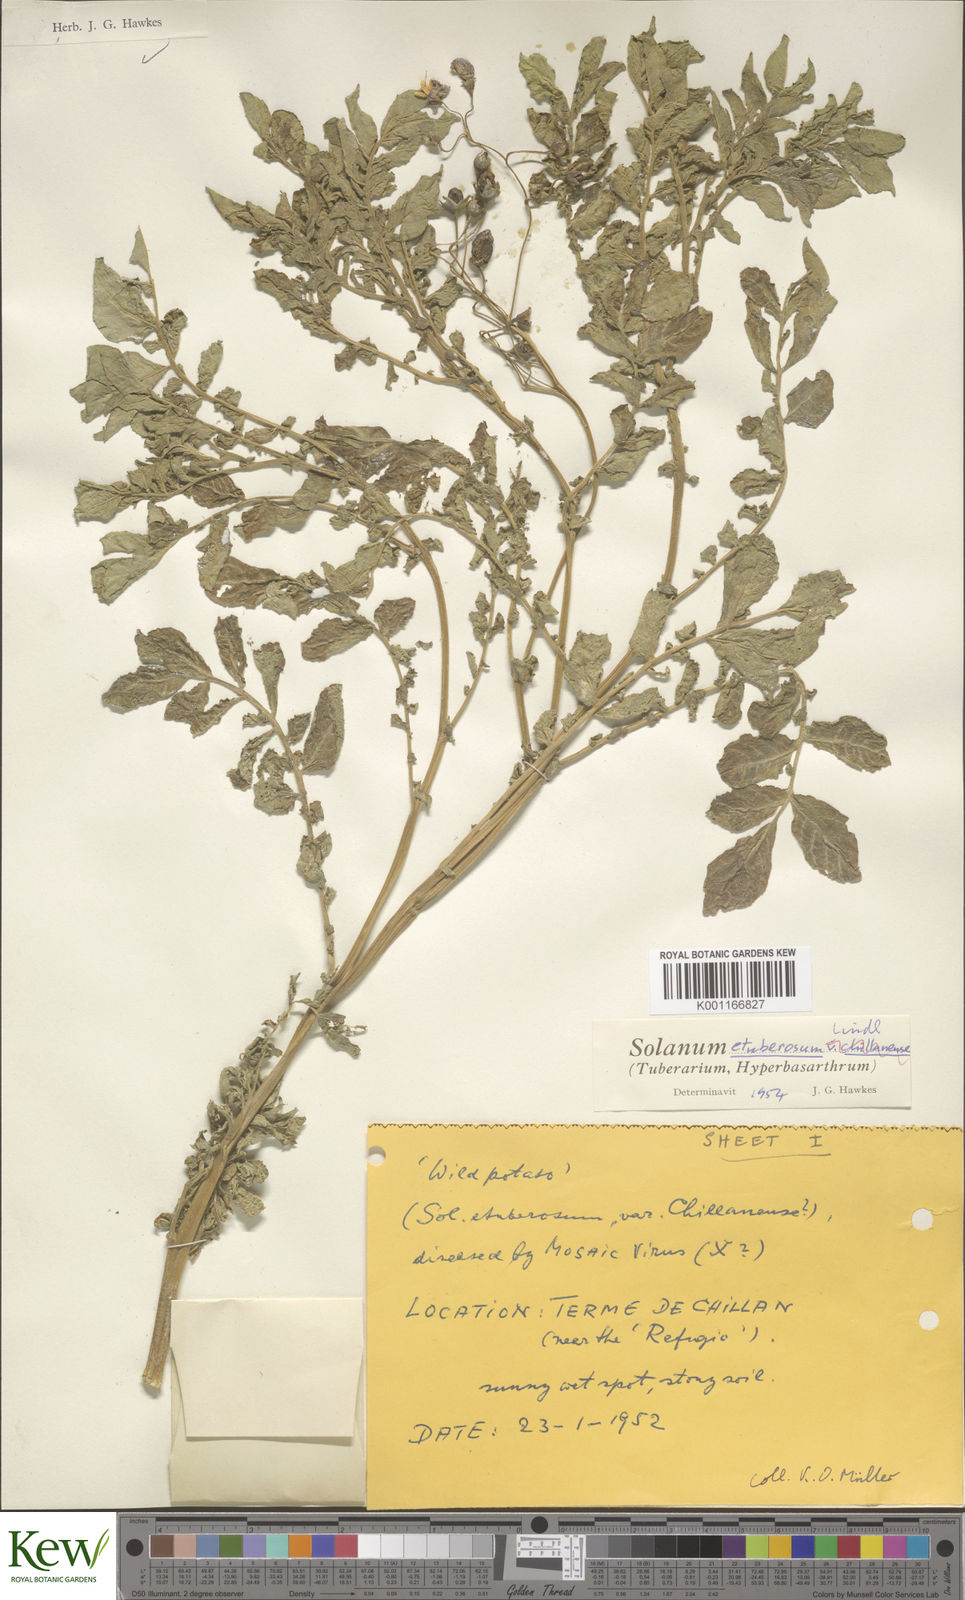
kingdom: Plantae
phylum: Tracheophyta
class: Magnoliopsida
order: Solanales
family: Solanaceae
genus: Solanum
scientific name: Solanum etuberosum
